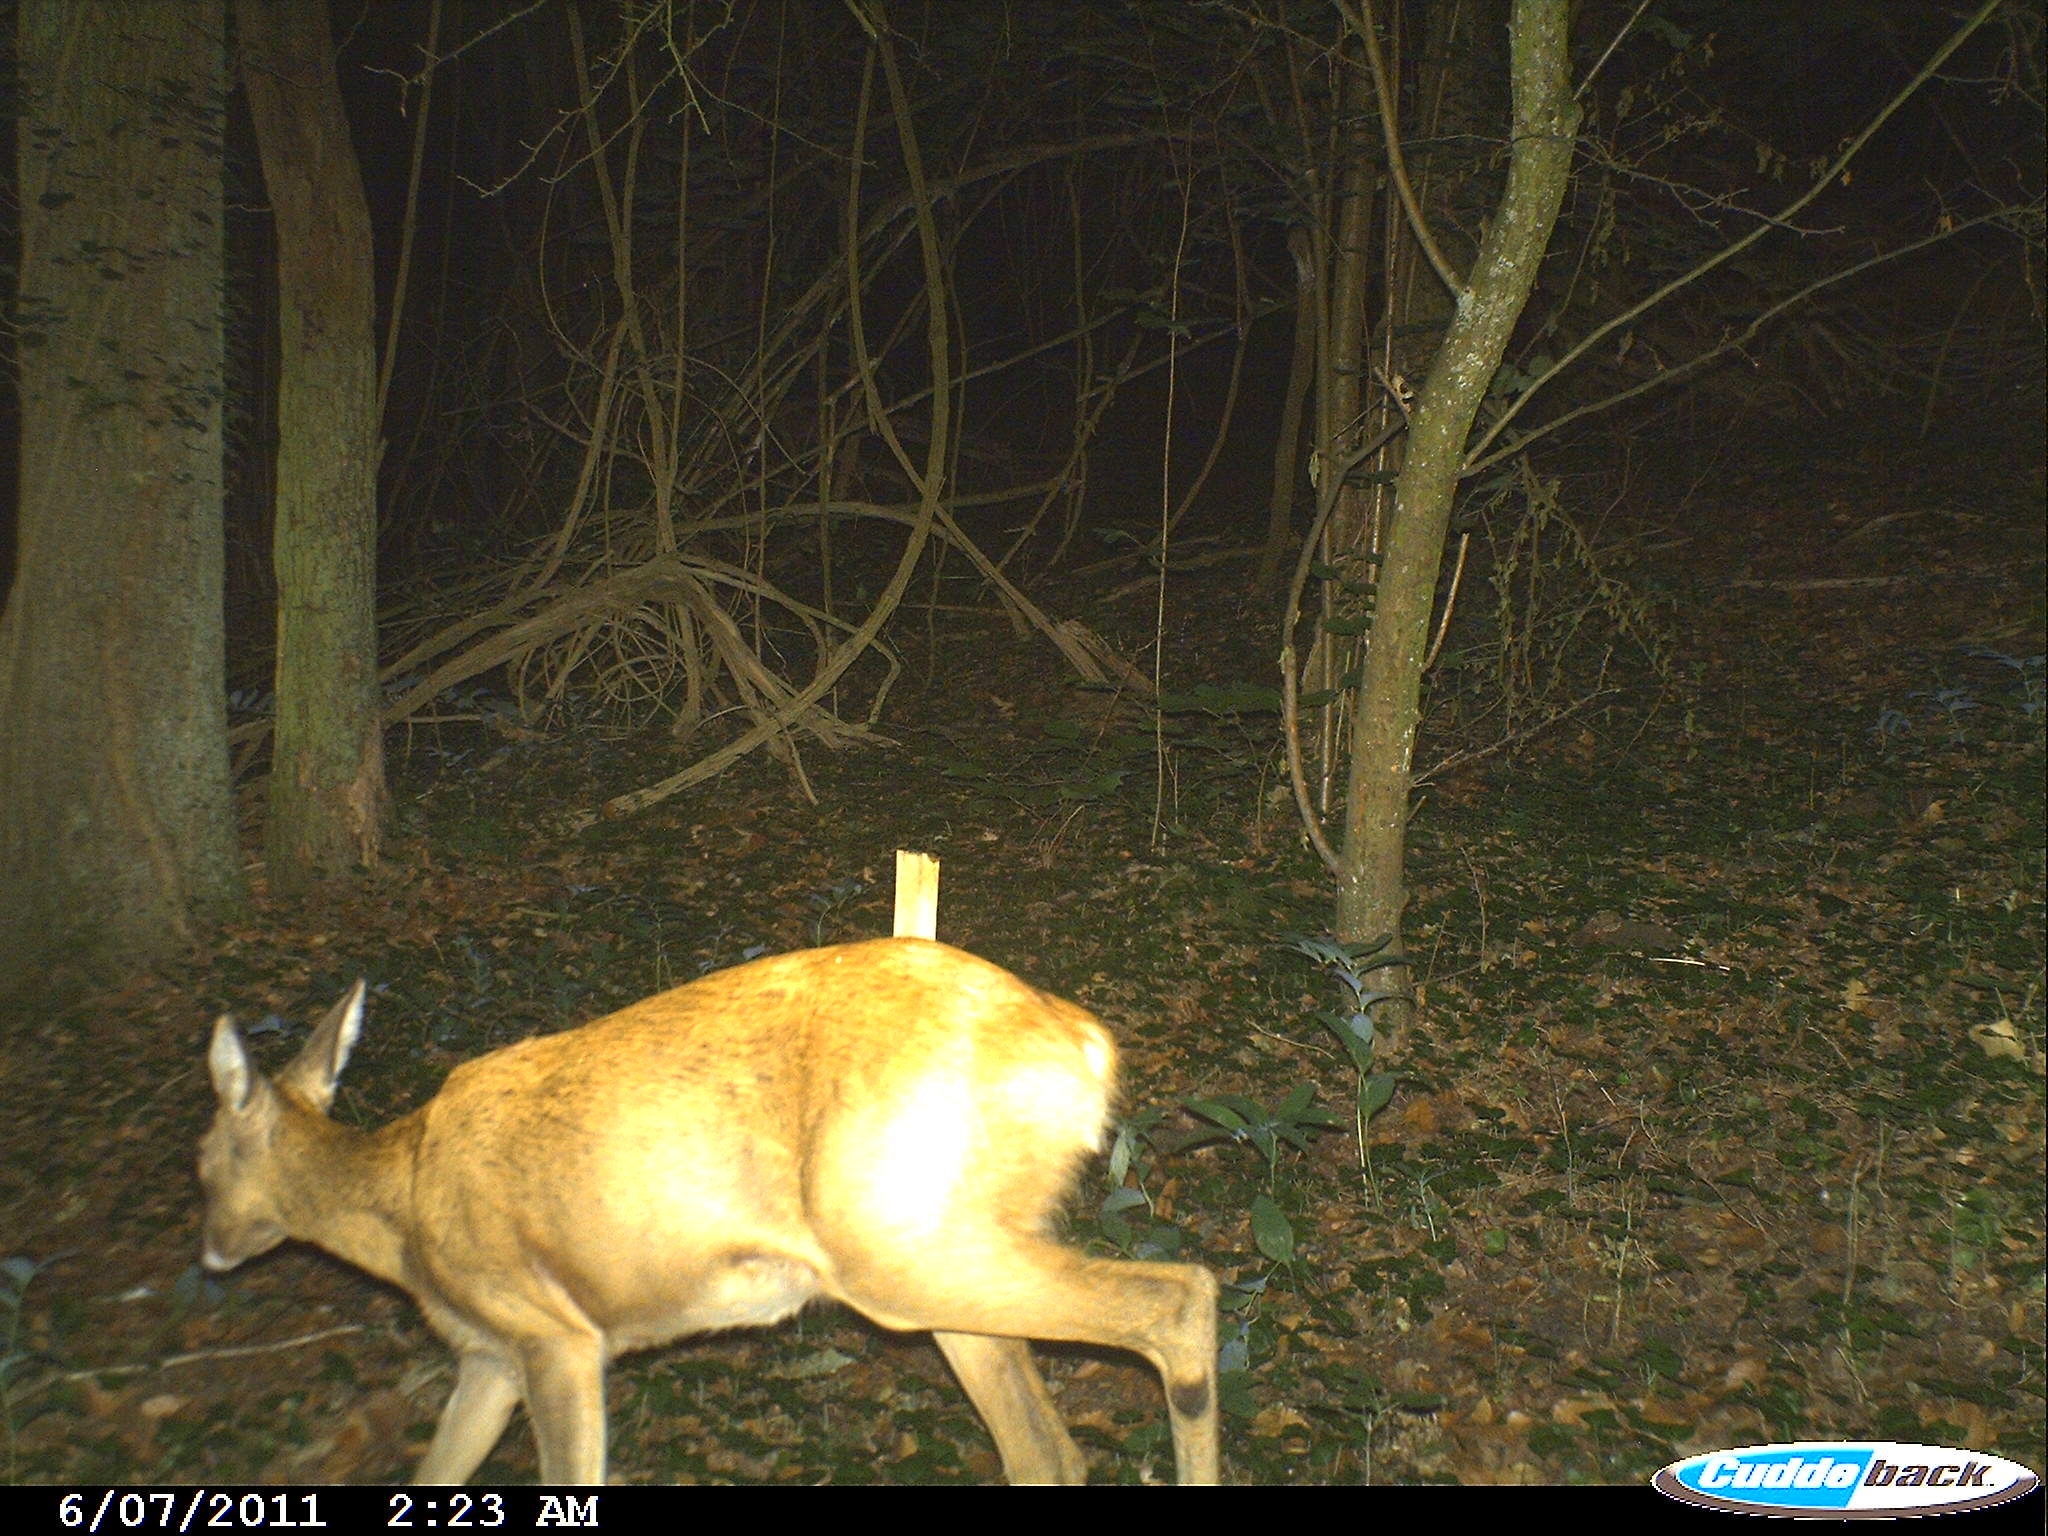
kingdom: Animalia
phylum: Chordata
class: Mammalia
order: Artiodactyla
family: Cervidae
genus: Capreolus
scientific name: Capreolus capreolus
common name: Western roe deer
